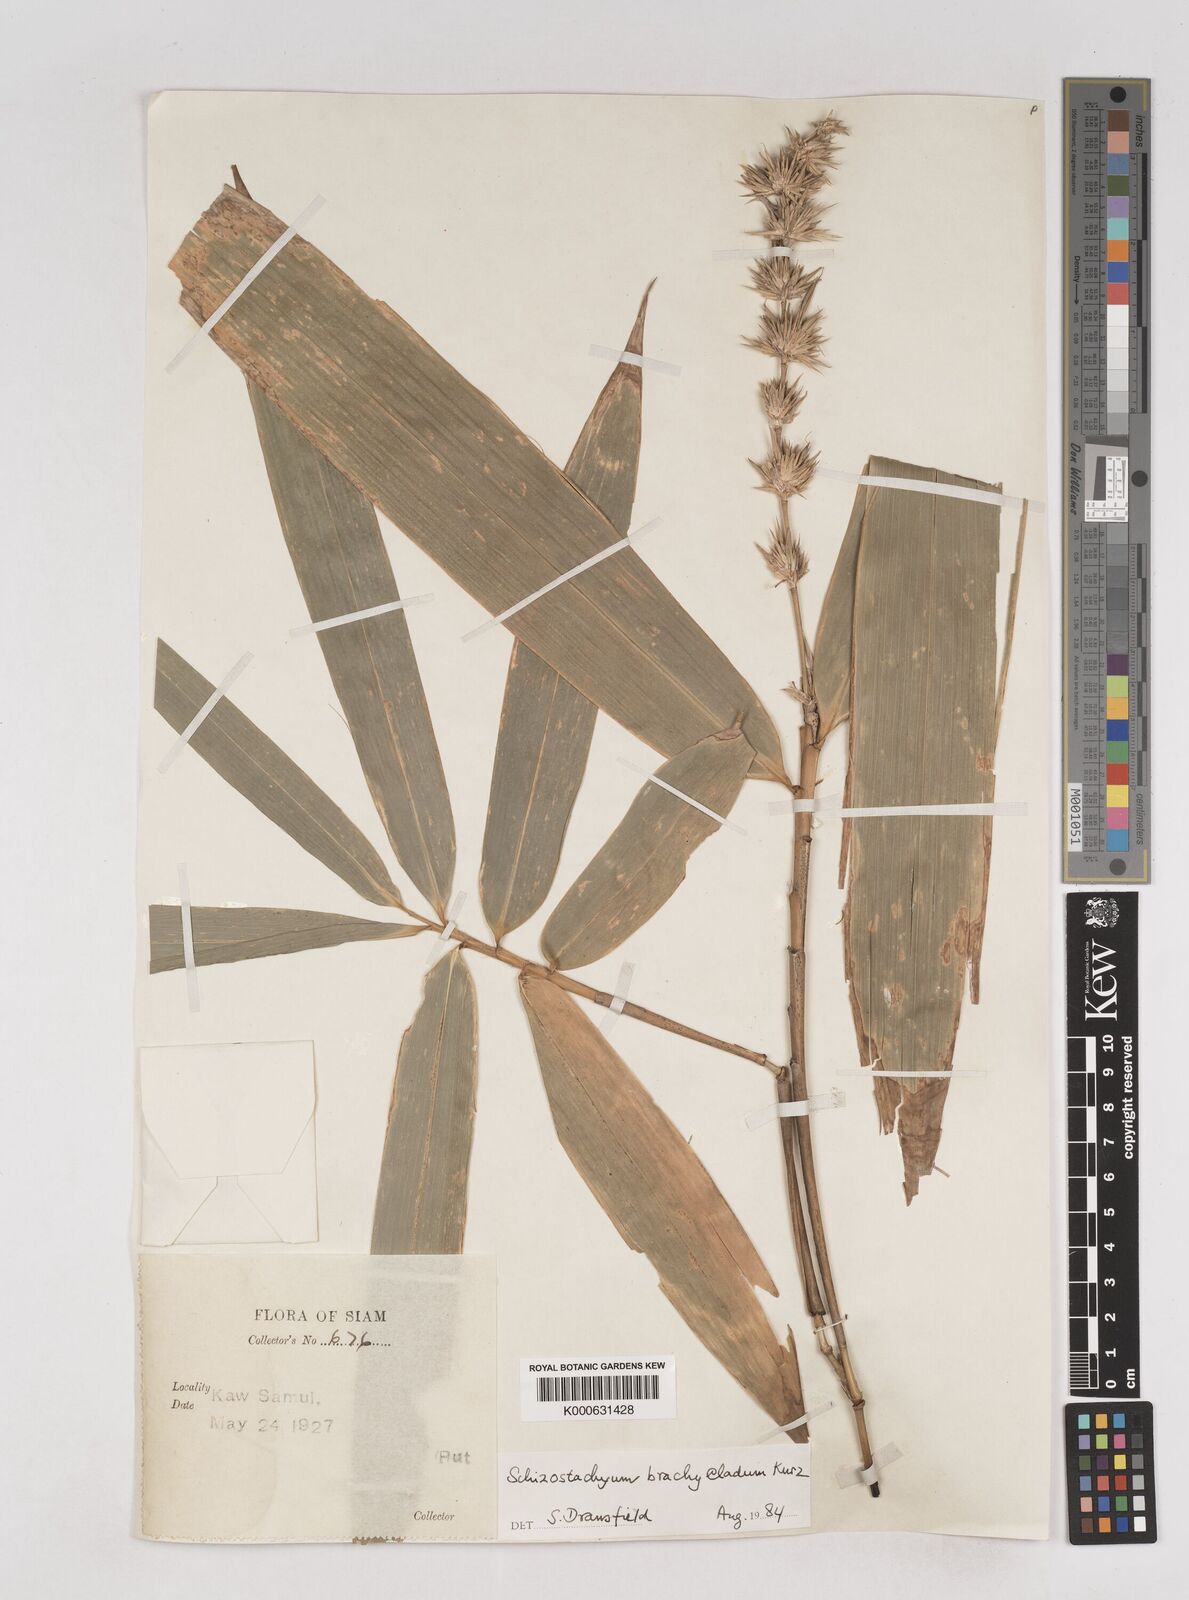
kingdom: Plantae
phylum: Tracheophyta
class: Liliopsida
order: Poales
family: Poaceae
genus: Schizostachyum
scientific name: Schizostachyum brachycladum
